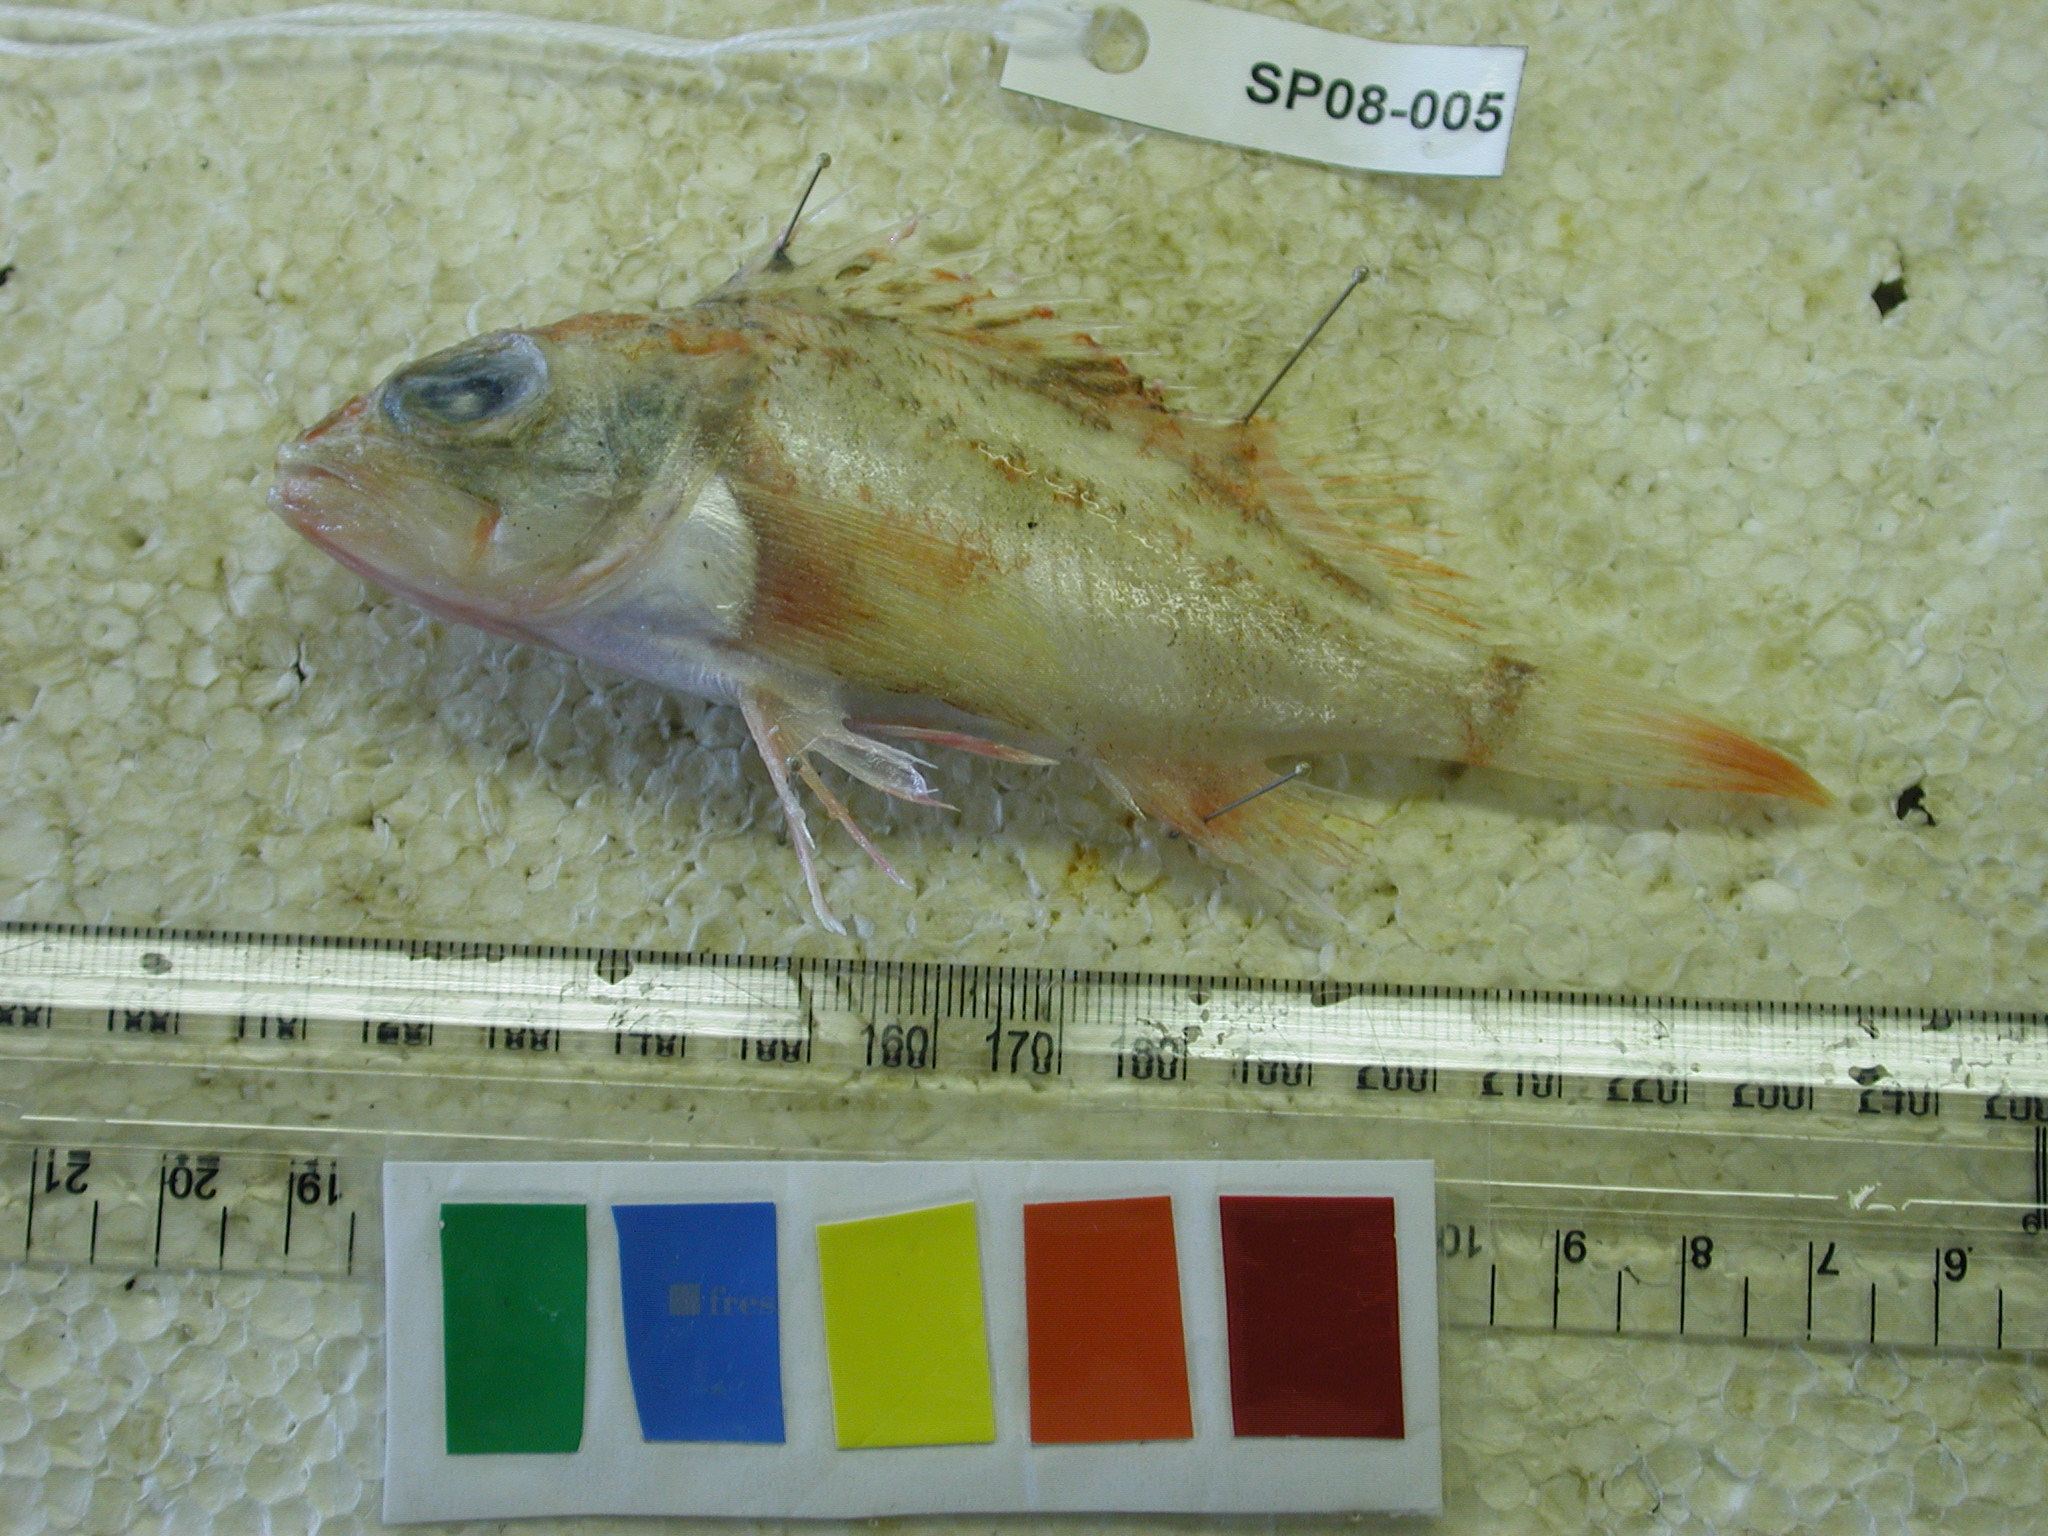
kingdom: Animalia
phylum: Chordata
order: Scorpaeniformes
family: Sebastidae
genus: Helicolenus
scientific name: Helicolenus dactylopterus
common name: Blackbelly rosefish
